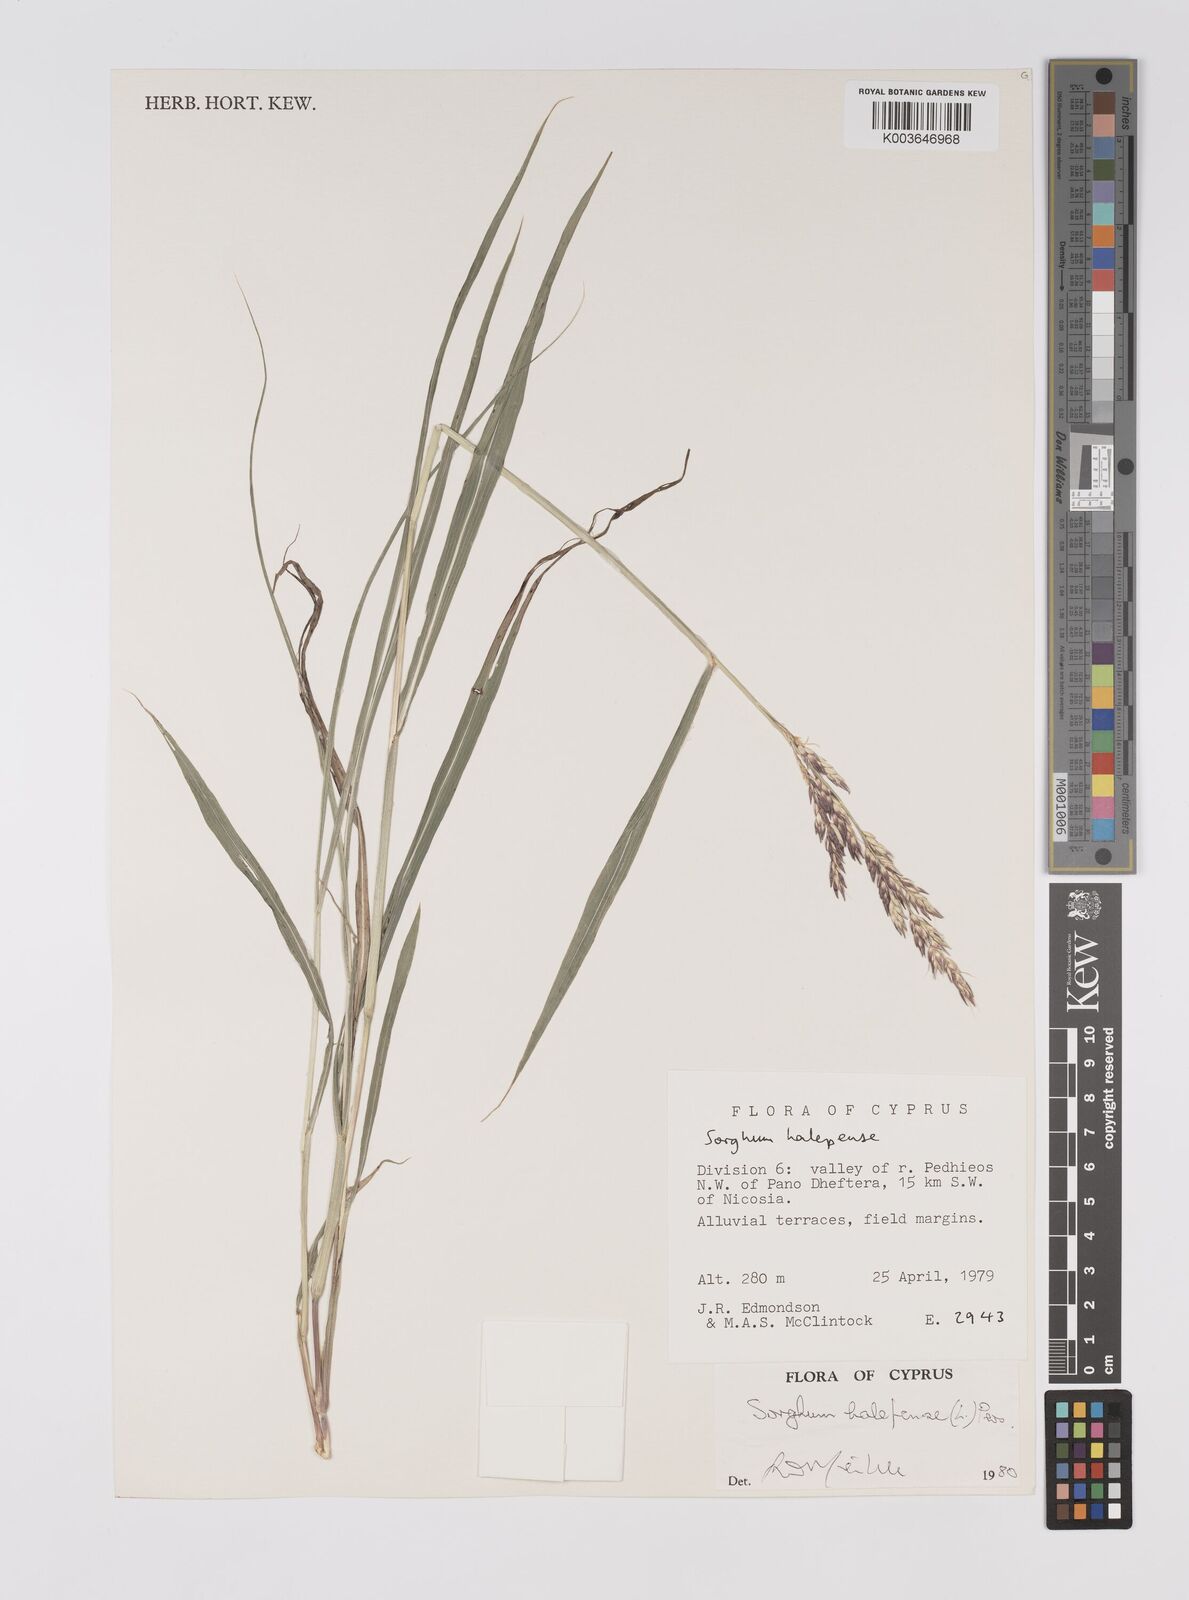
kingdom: Plantae
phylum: Tracheophyta
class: Liliopsida
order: Poales
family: Poaceae
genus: Sorghum
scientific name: Sorghum halepense
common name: Johnson-grass
